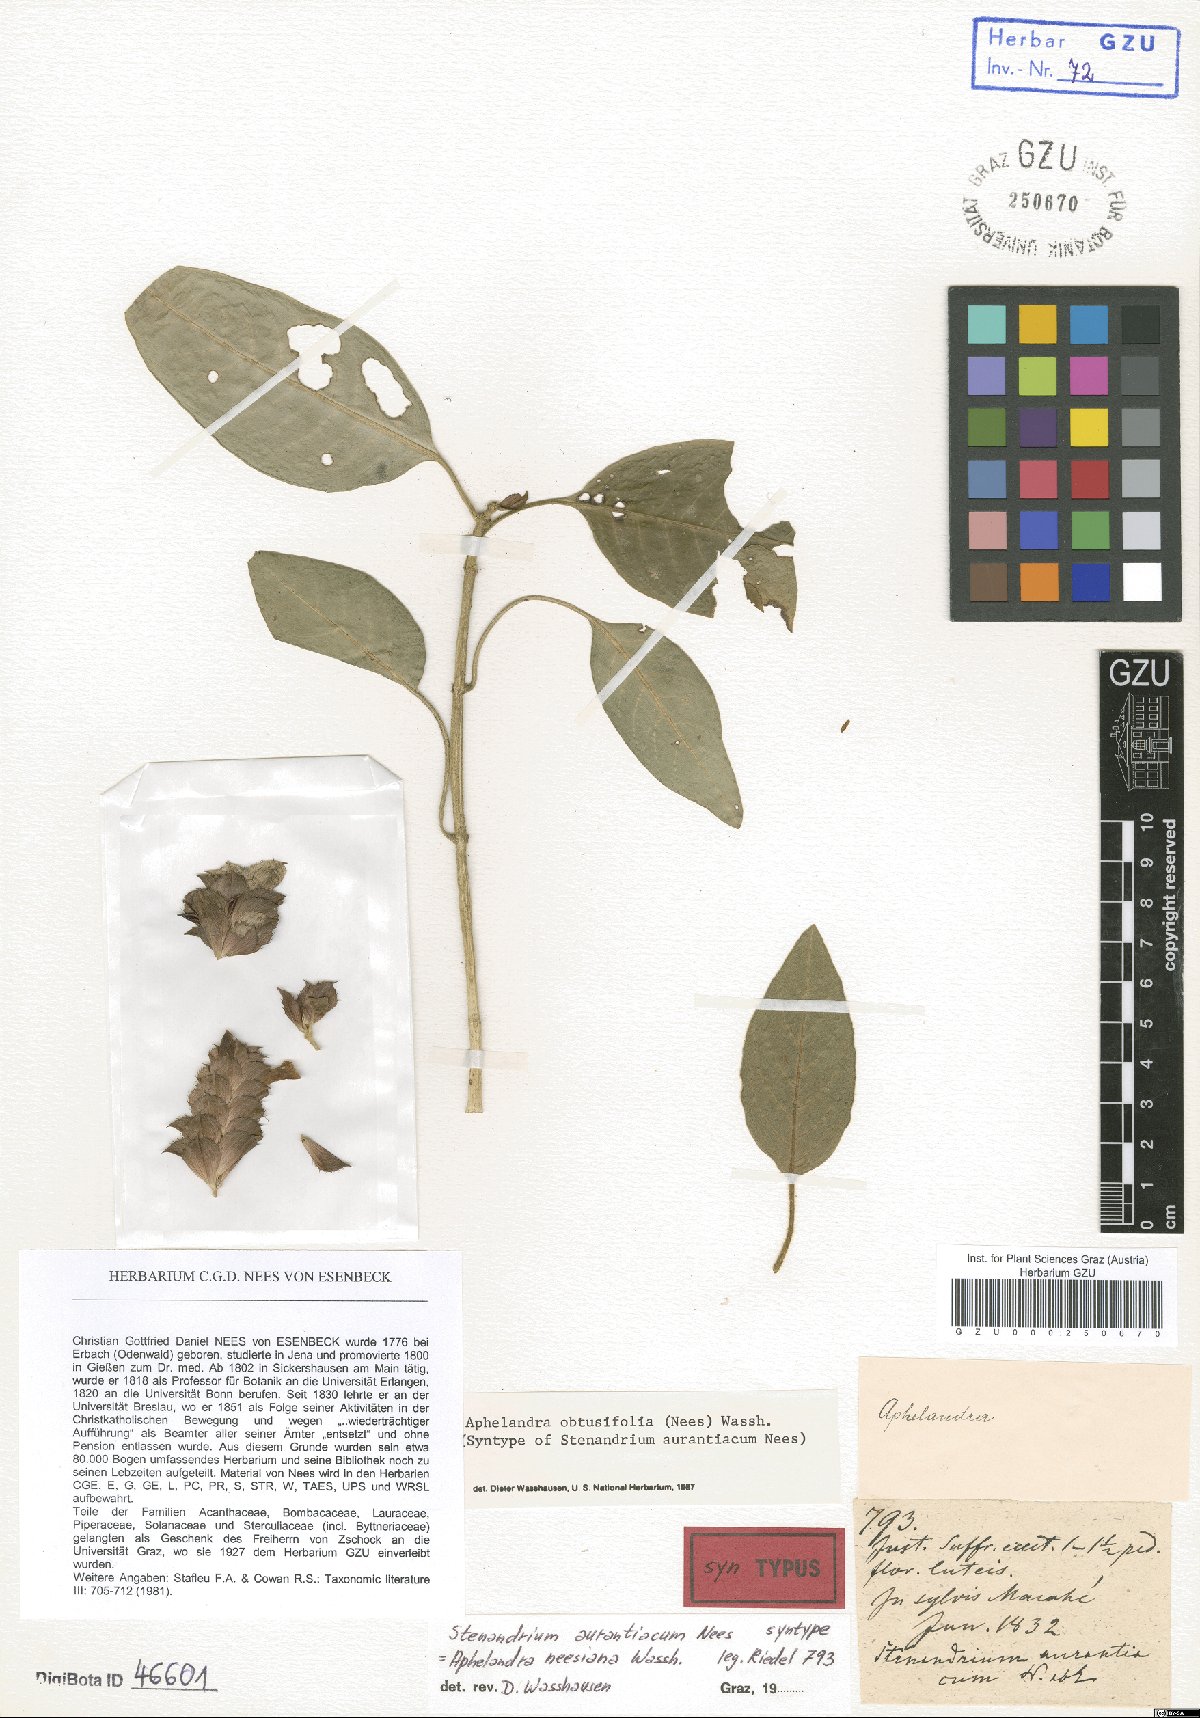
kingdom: Plantae
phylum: Tracheophyta
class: Magnoliopsida
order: Lamiales
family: Acanthaceae
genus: Aphelandra
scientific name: Aphelandra neesiana
